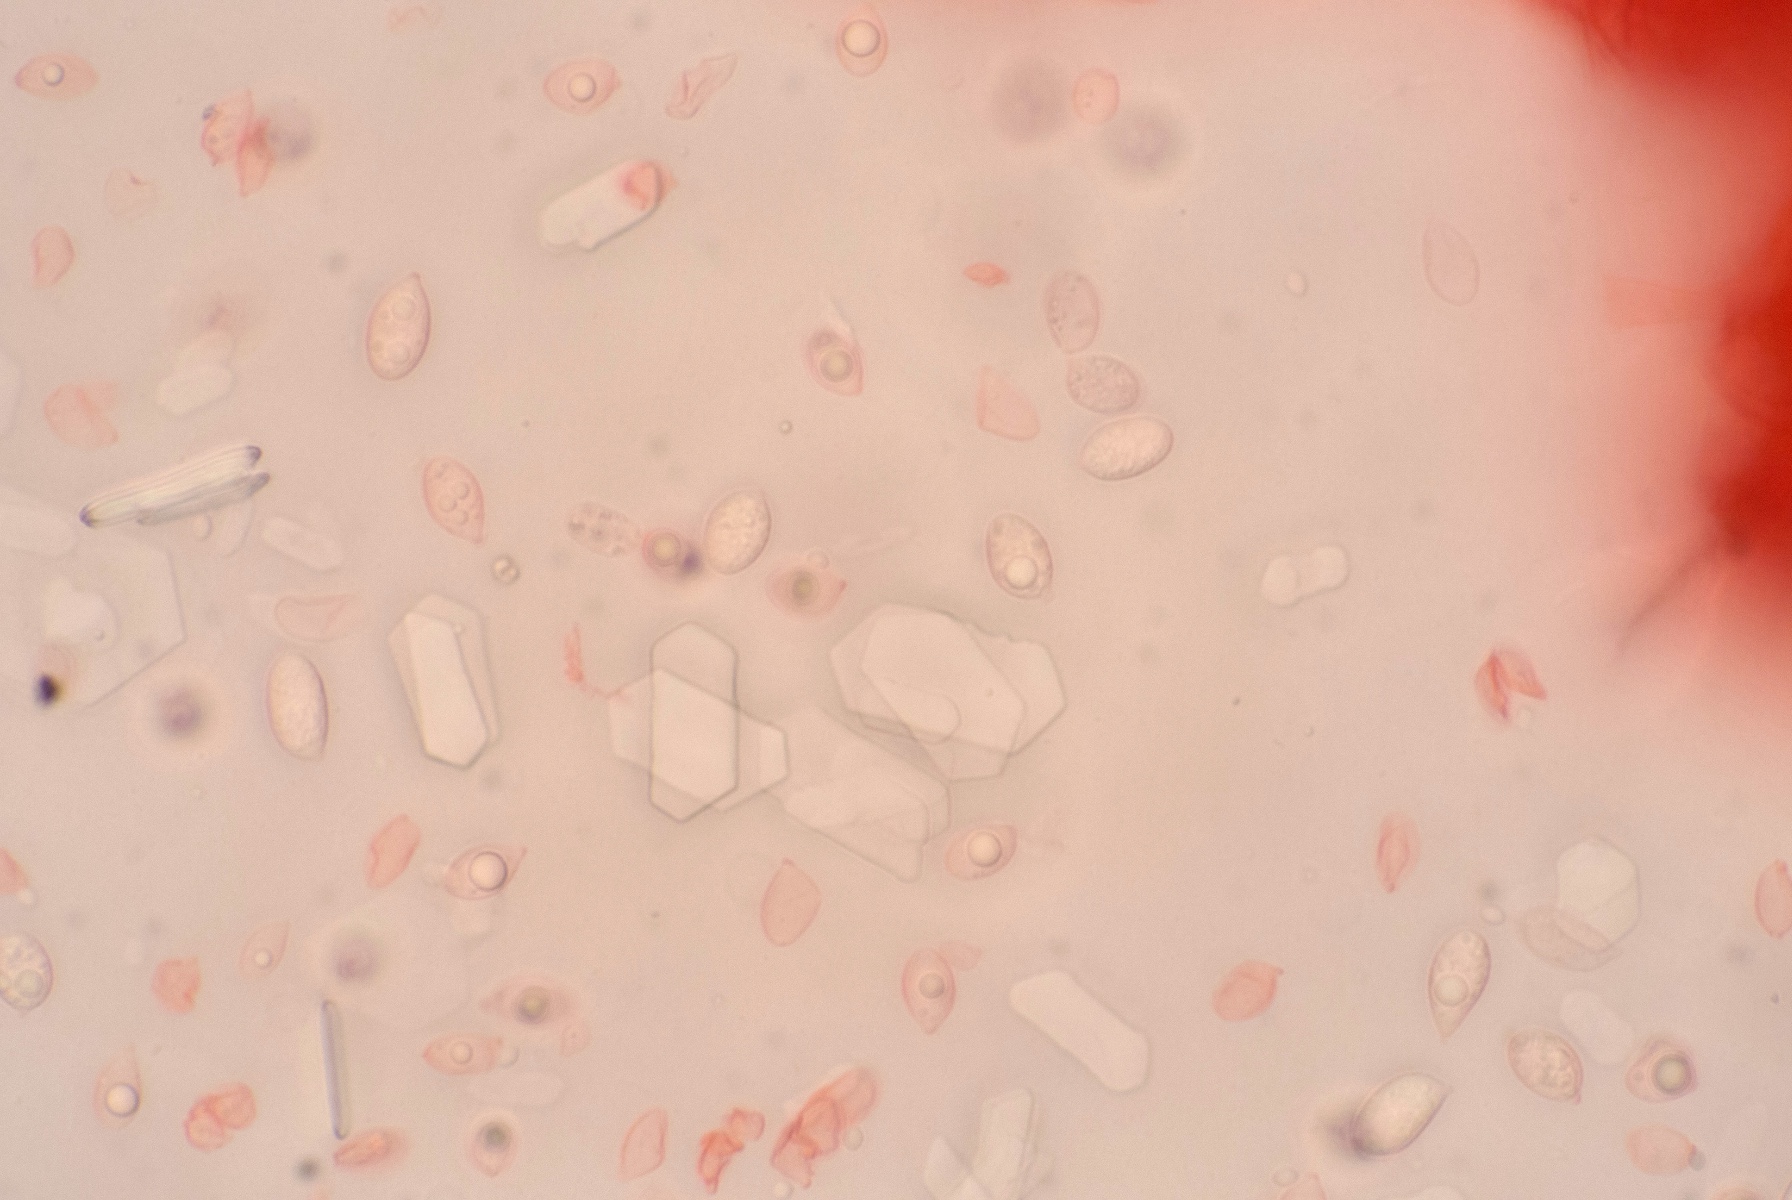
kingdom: Fungi
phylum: Basidiomycota
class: Agaricomycetes
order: Agaricales
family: Mycenaceae
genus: Mycena
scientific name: Mycena mirata
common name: krat-huesvamp
